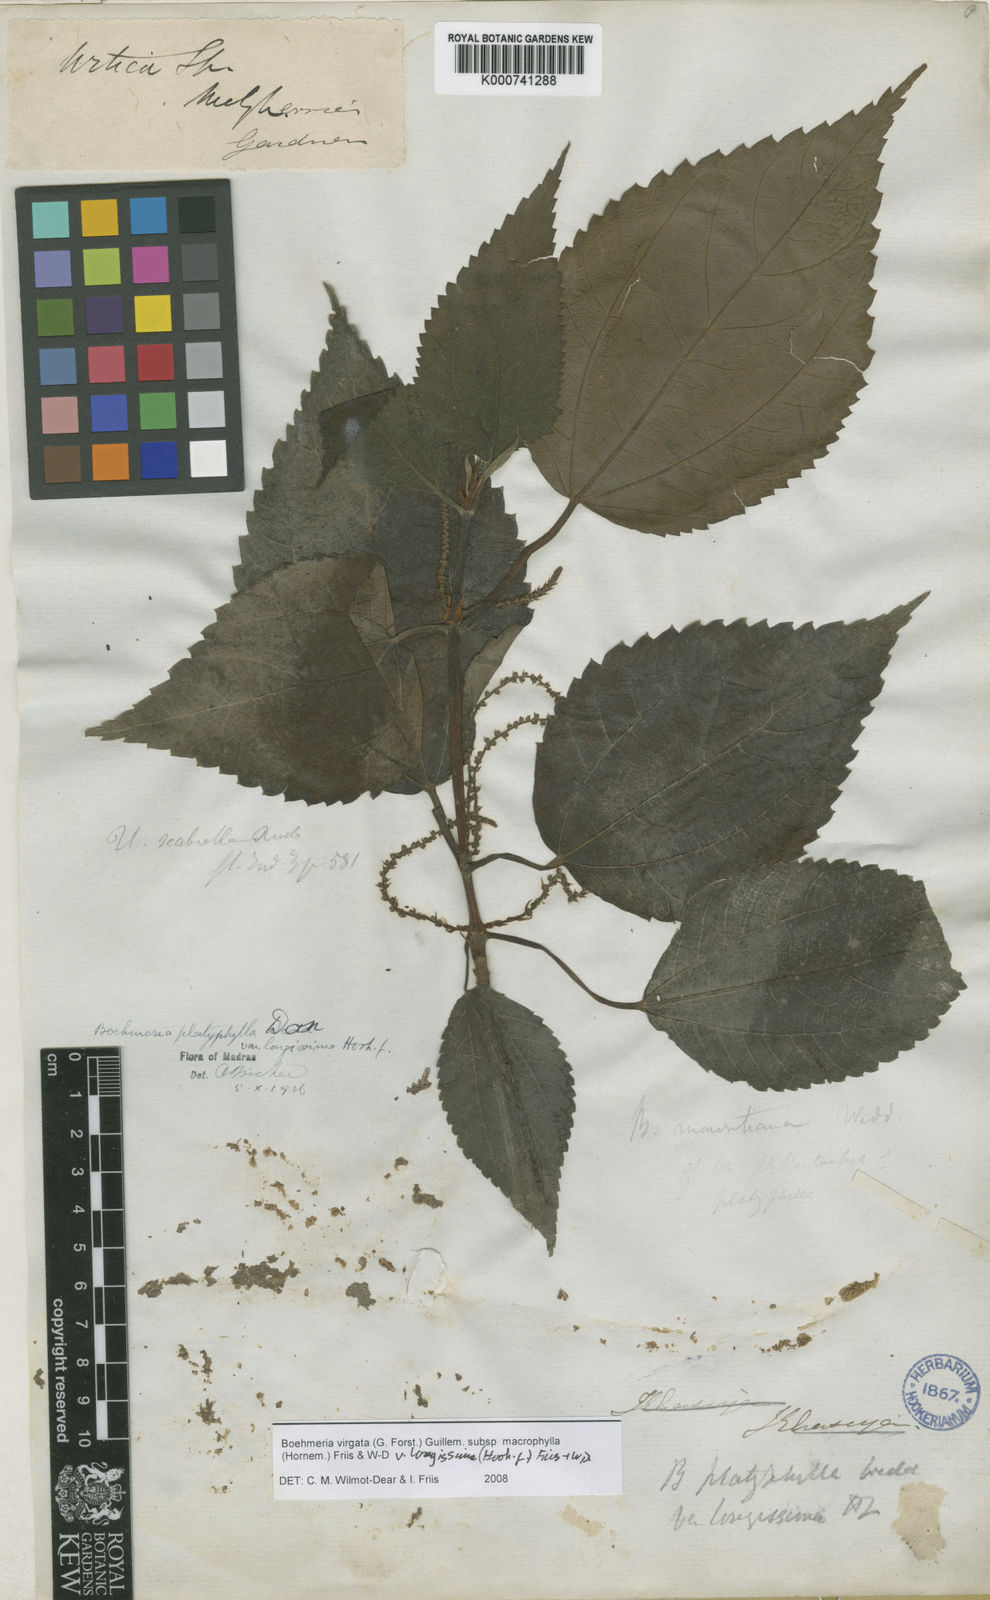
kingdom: Plantae
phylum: Tracheophyta
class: Magnoliopsida
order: Rosales
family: Urticaceae
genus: Boehmeria
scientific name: Boehmeria virgata
